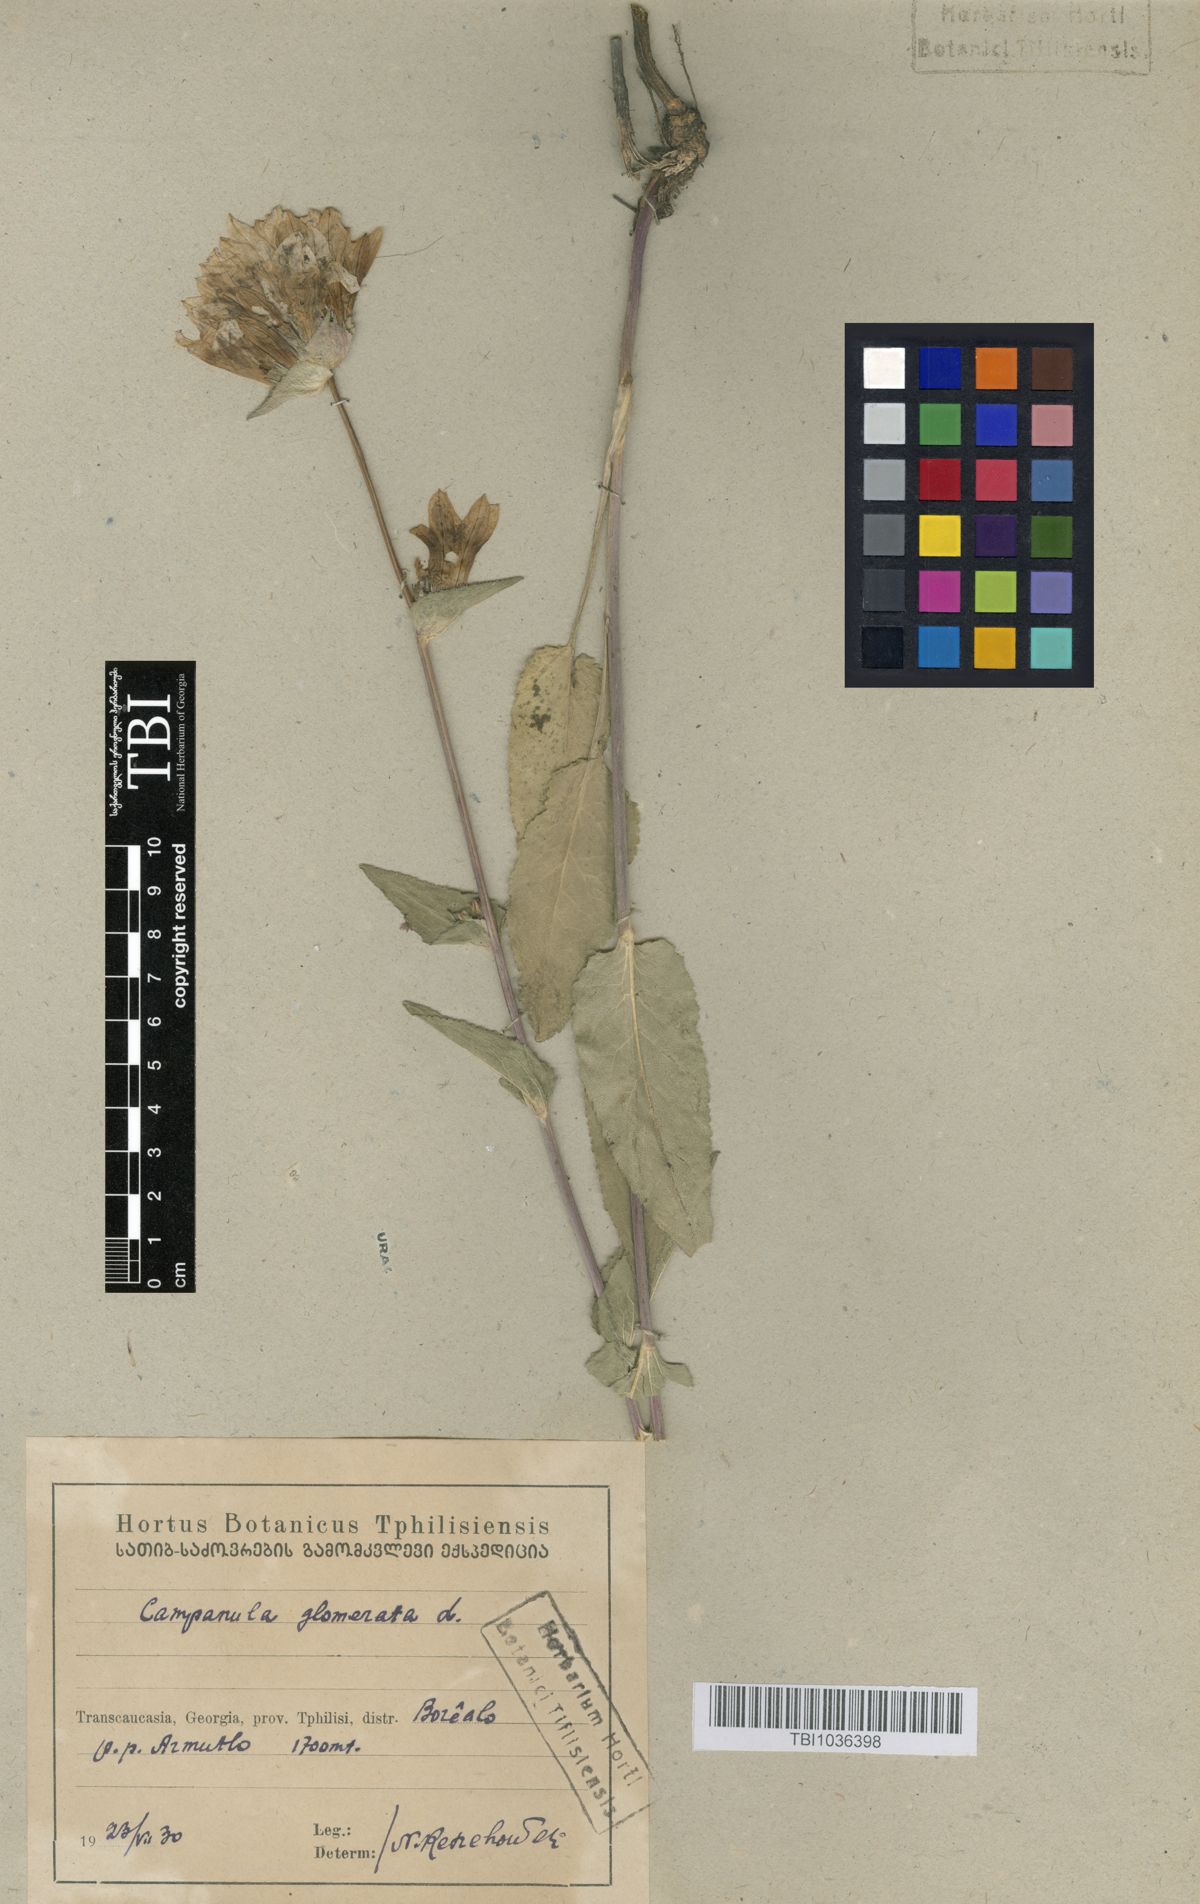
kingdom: Plantae
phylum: Tracheophyta
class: Magnoliopsida
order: Asterales
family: Campanulaceae
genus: Campanula
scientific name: Campanula glomerata
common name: Clustered bellflower
